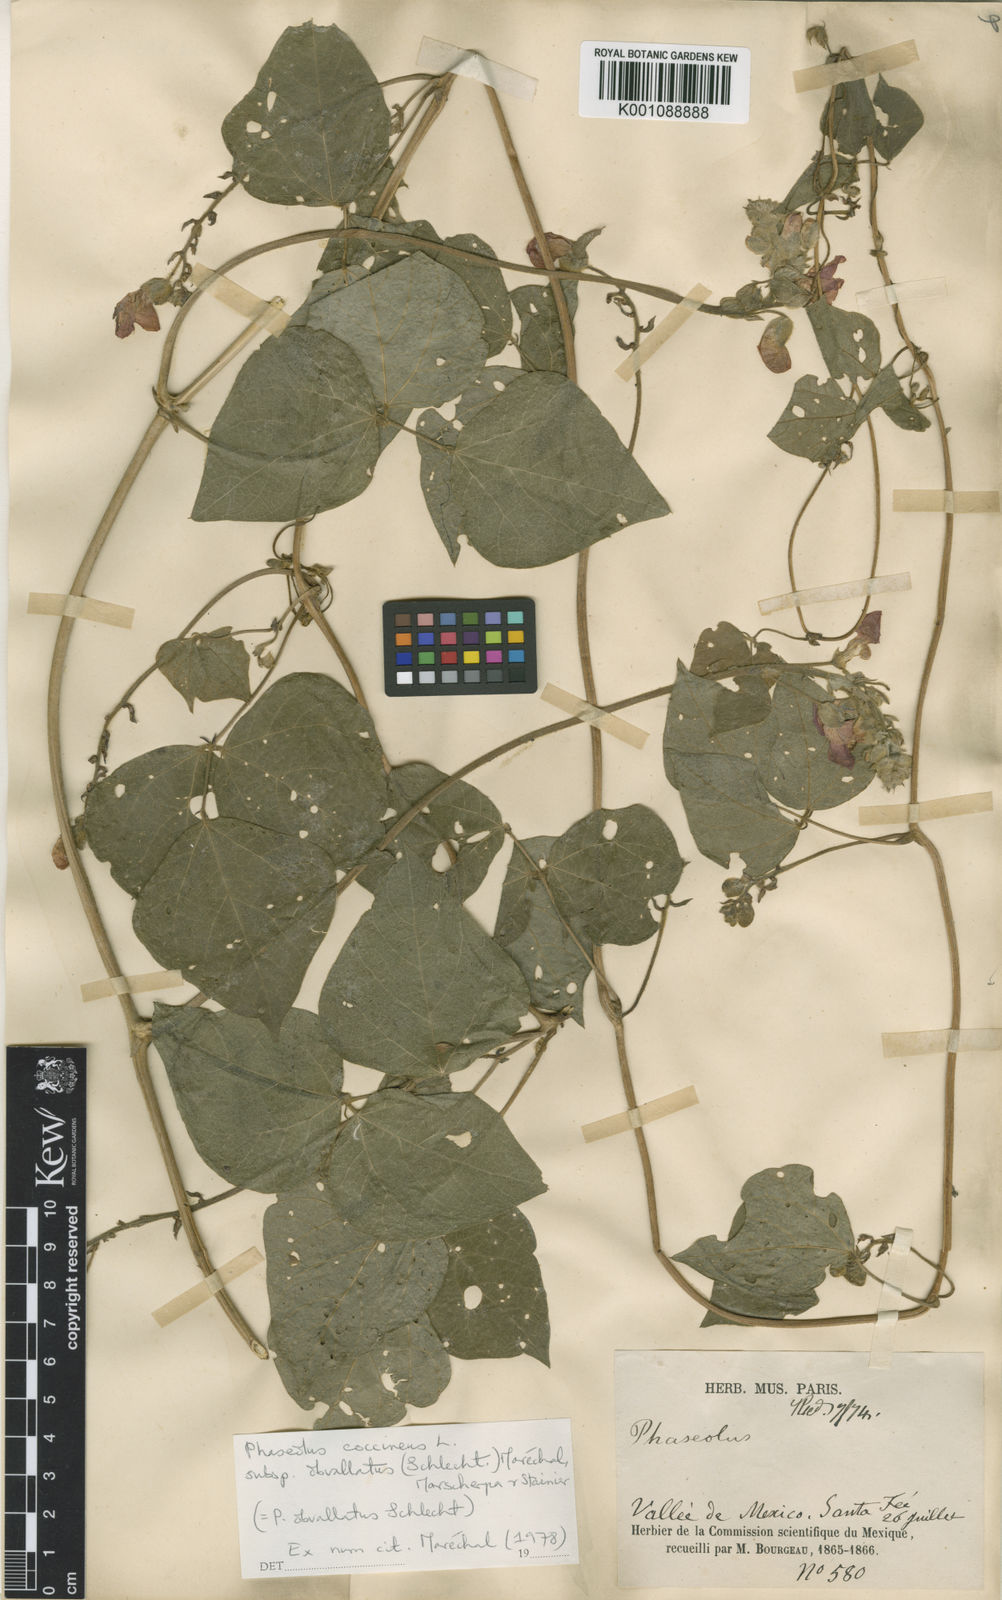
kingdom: Plantae
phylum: Tracheophyta
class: Magnoliopsida
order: Fabales
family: Fabaceae
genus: Phaseolus
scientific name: Phaseolus coccineus
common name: Runner bean
